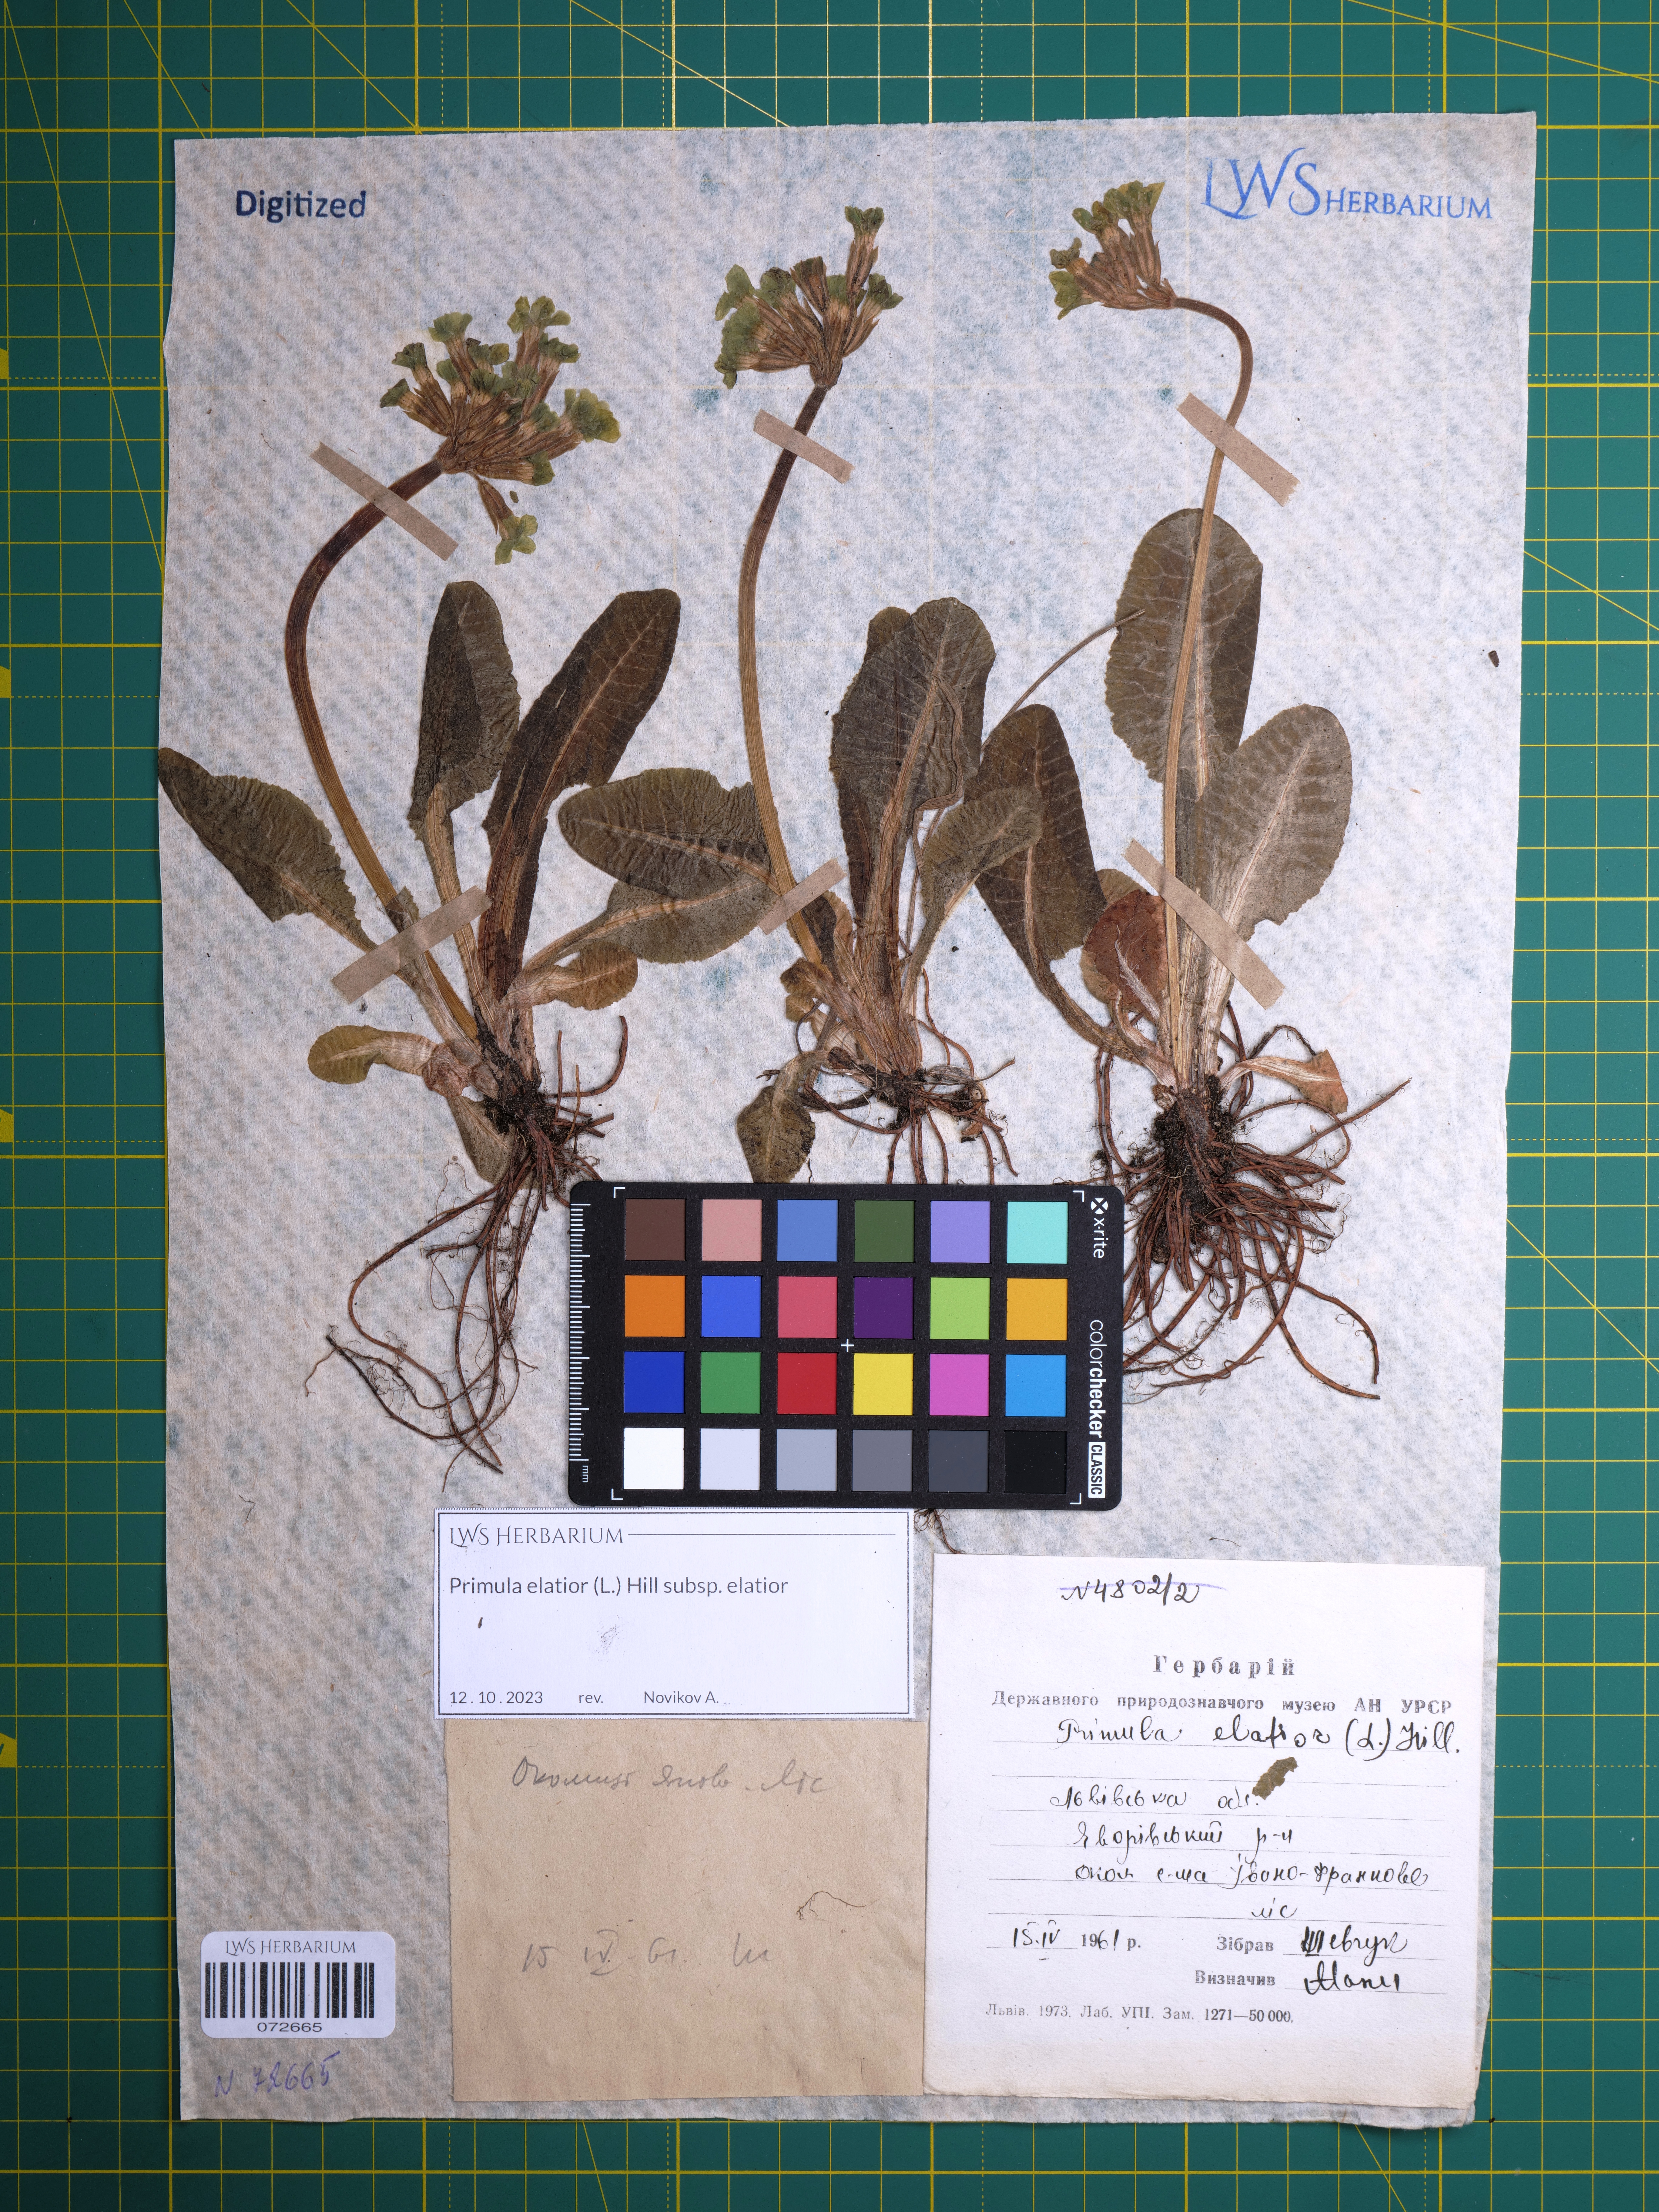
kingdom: Plantae
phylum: Tracheophyta
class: Magnoliopsida
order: Ericales
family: Primulaceae
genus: Primula
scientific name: Primula elatior
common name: Oxlip
